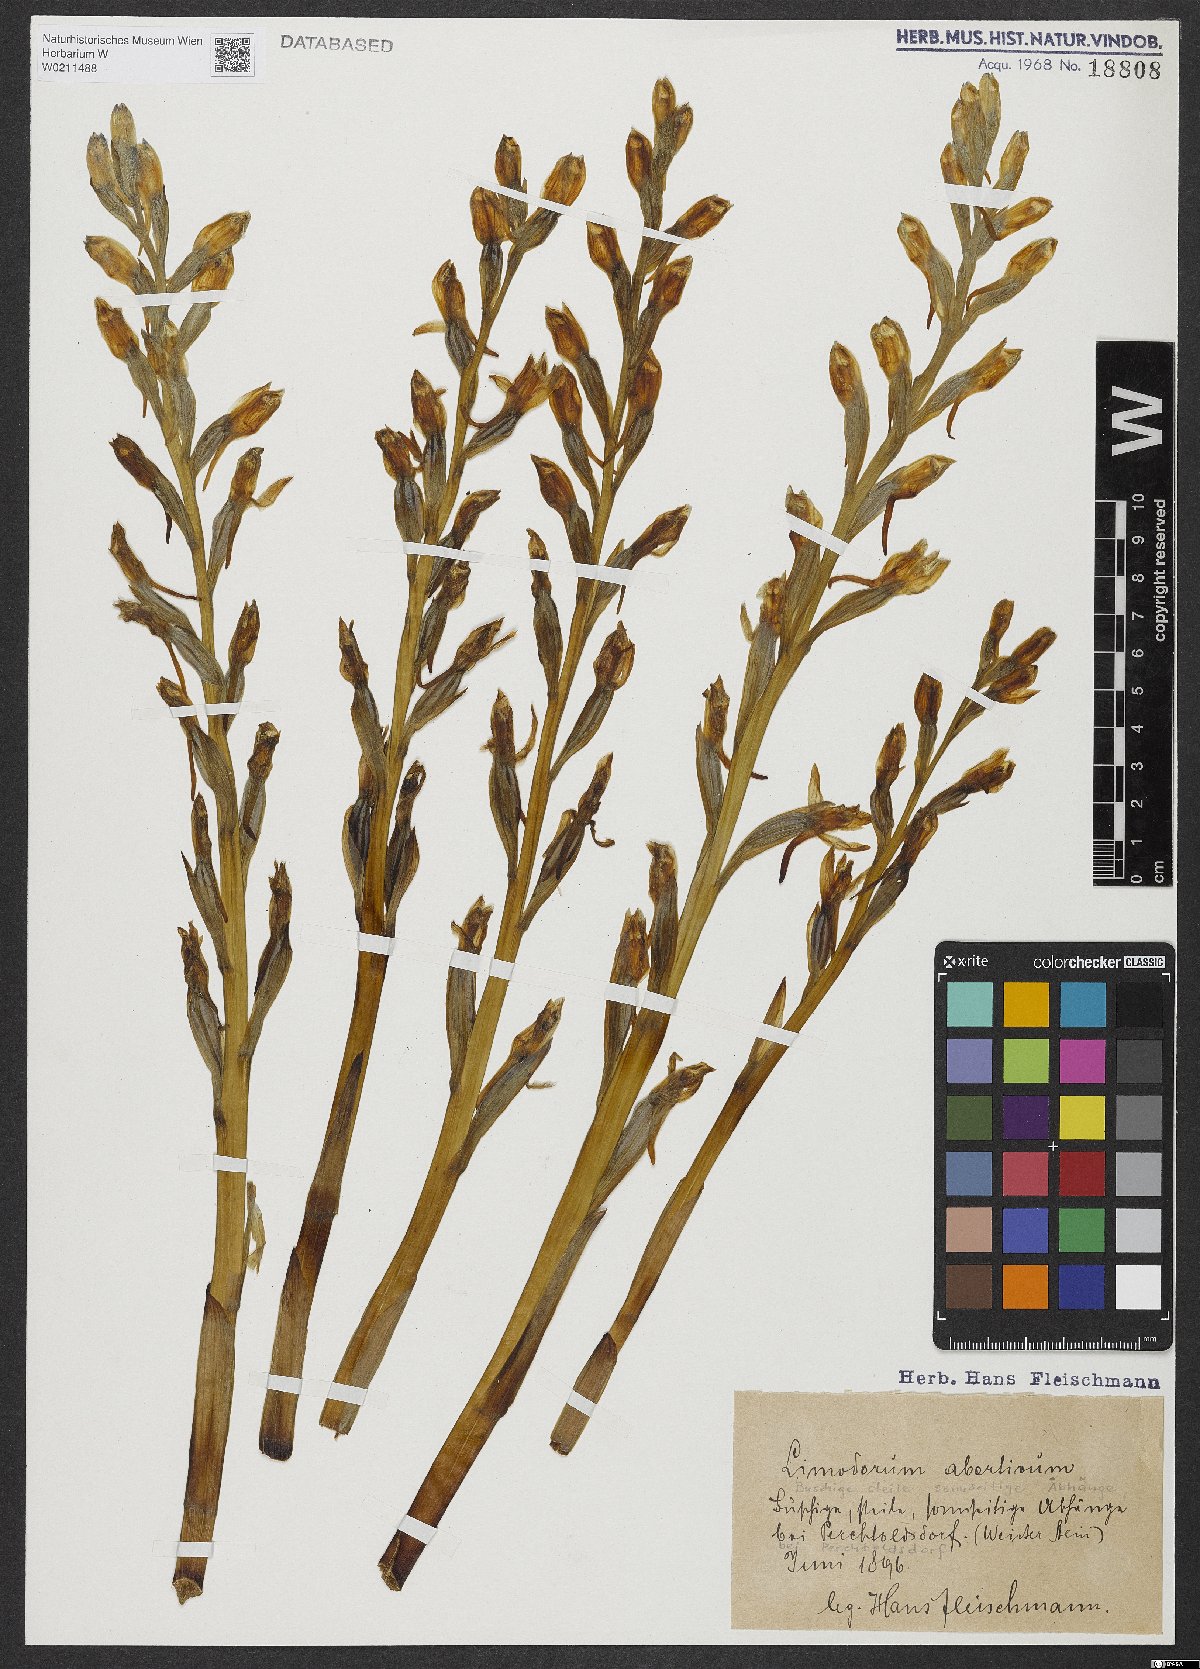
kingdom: Plantae
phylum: Tracheophyta
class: Liliopsida
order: Asparagales
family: Orchidaceae
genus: Limodorum
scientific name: Limodorum abortivum
